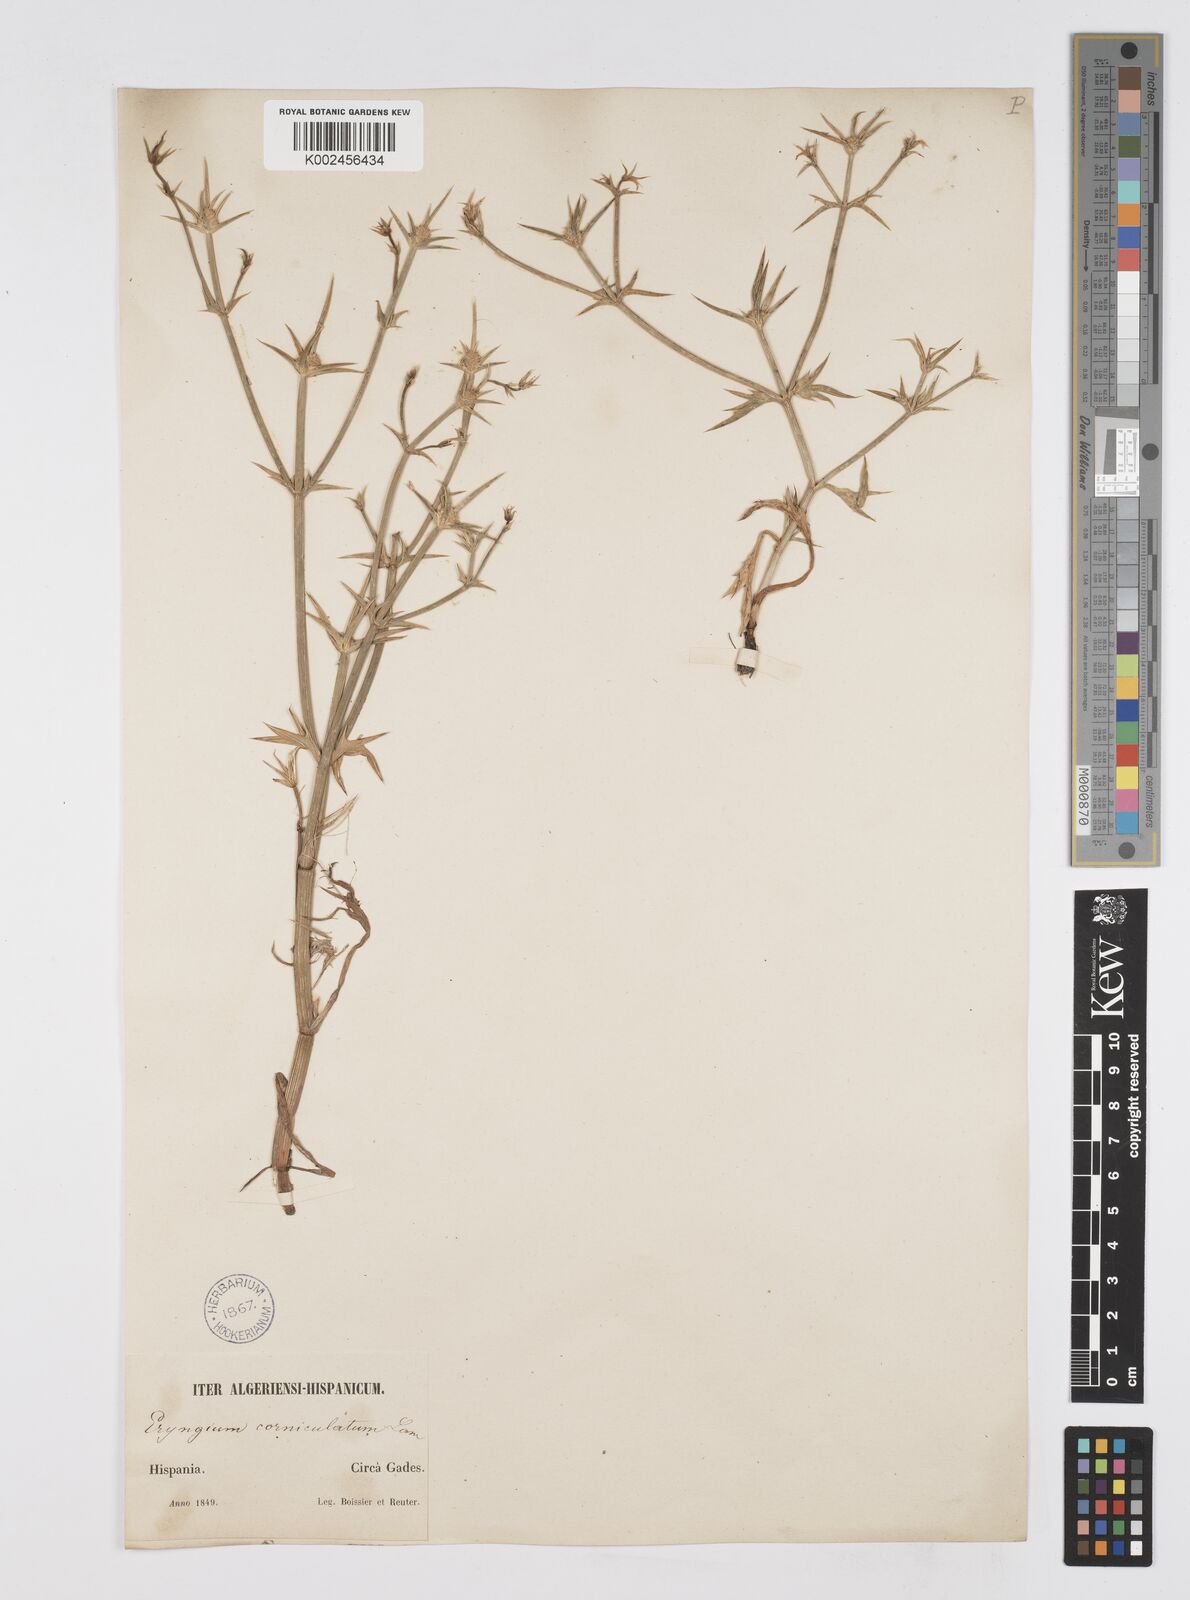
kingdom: Plantae
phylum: Tracheophyta
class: Magnoliopsida
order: Apiales
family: Apiaceae
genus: Eryngium
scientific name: Eryngium corniculatum
